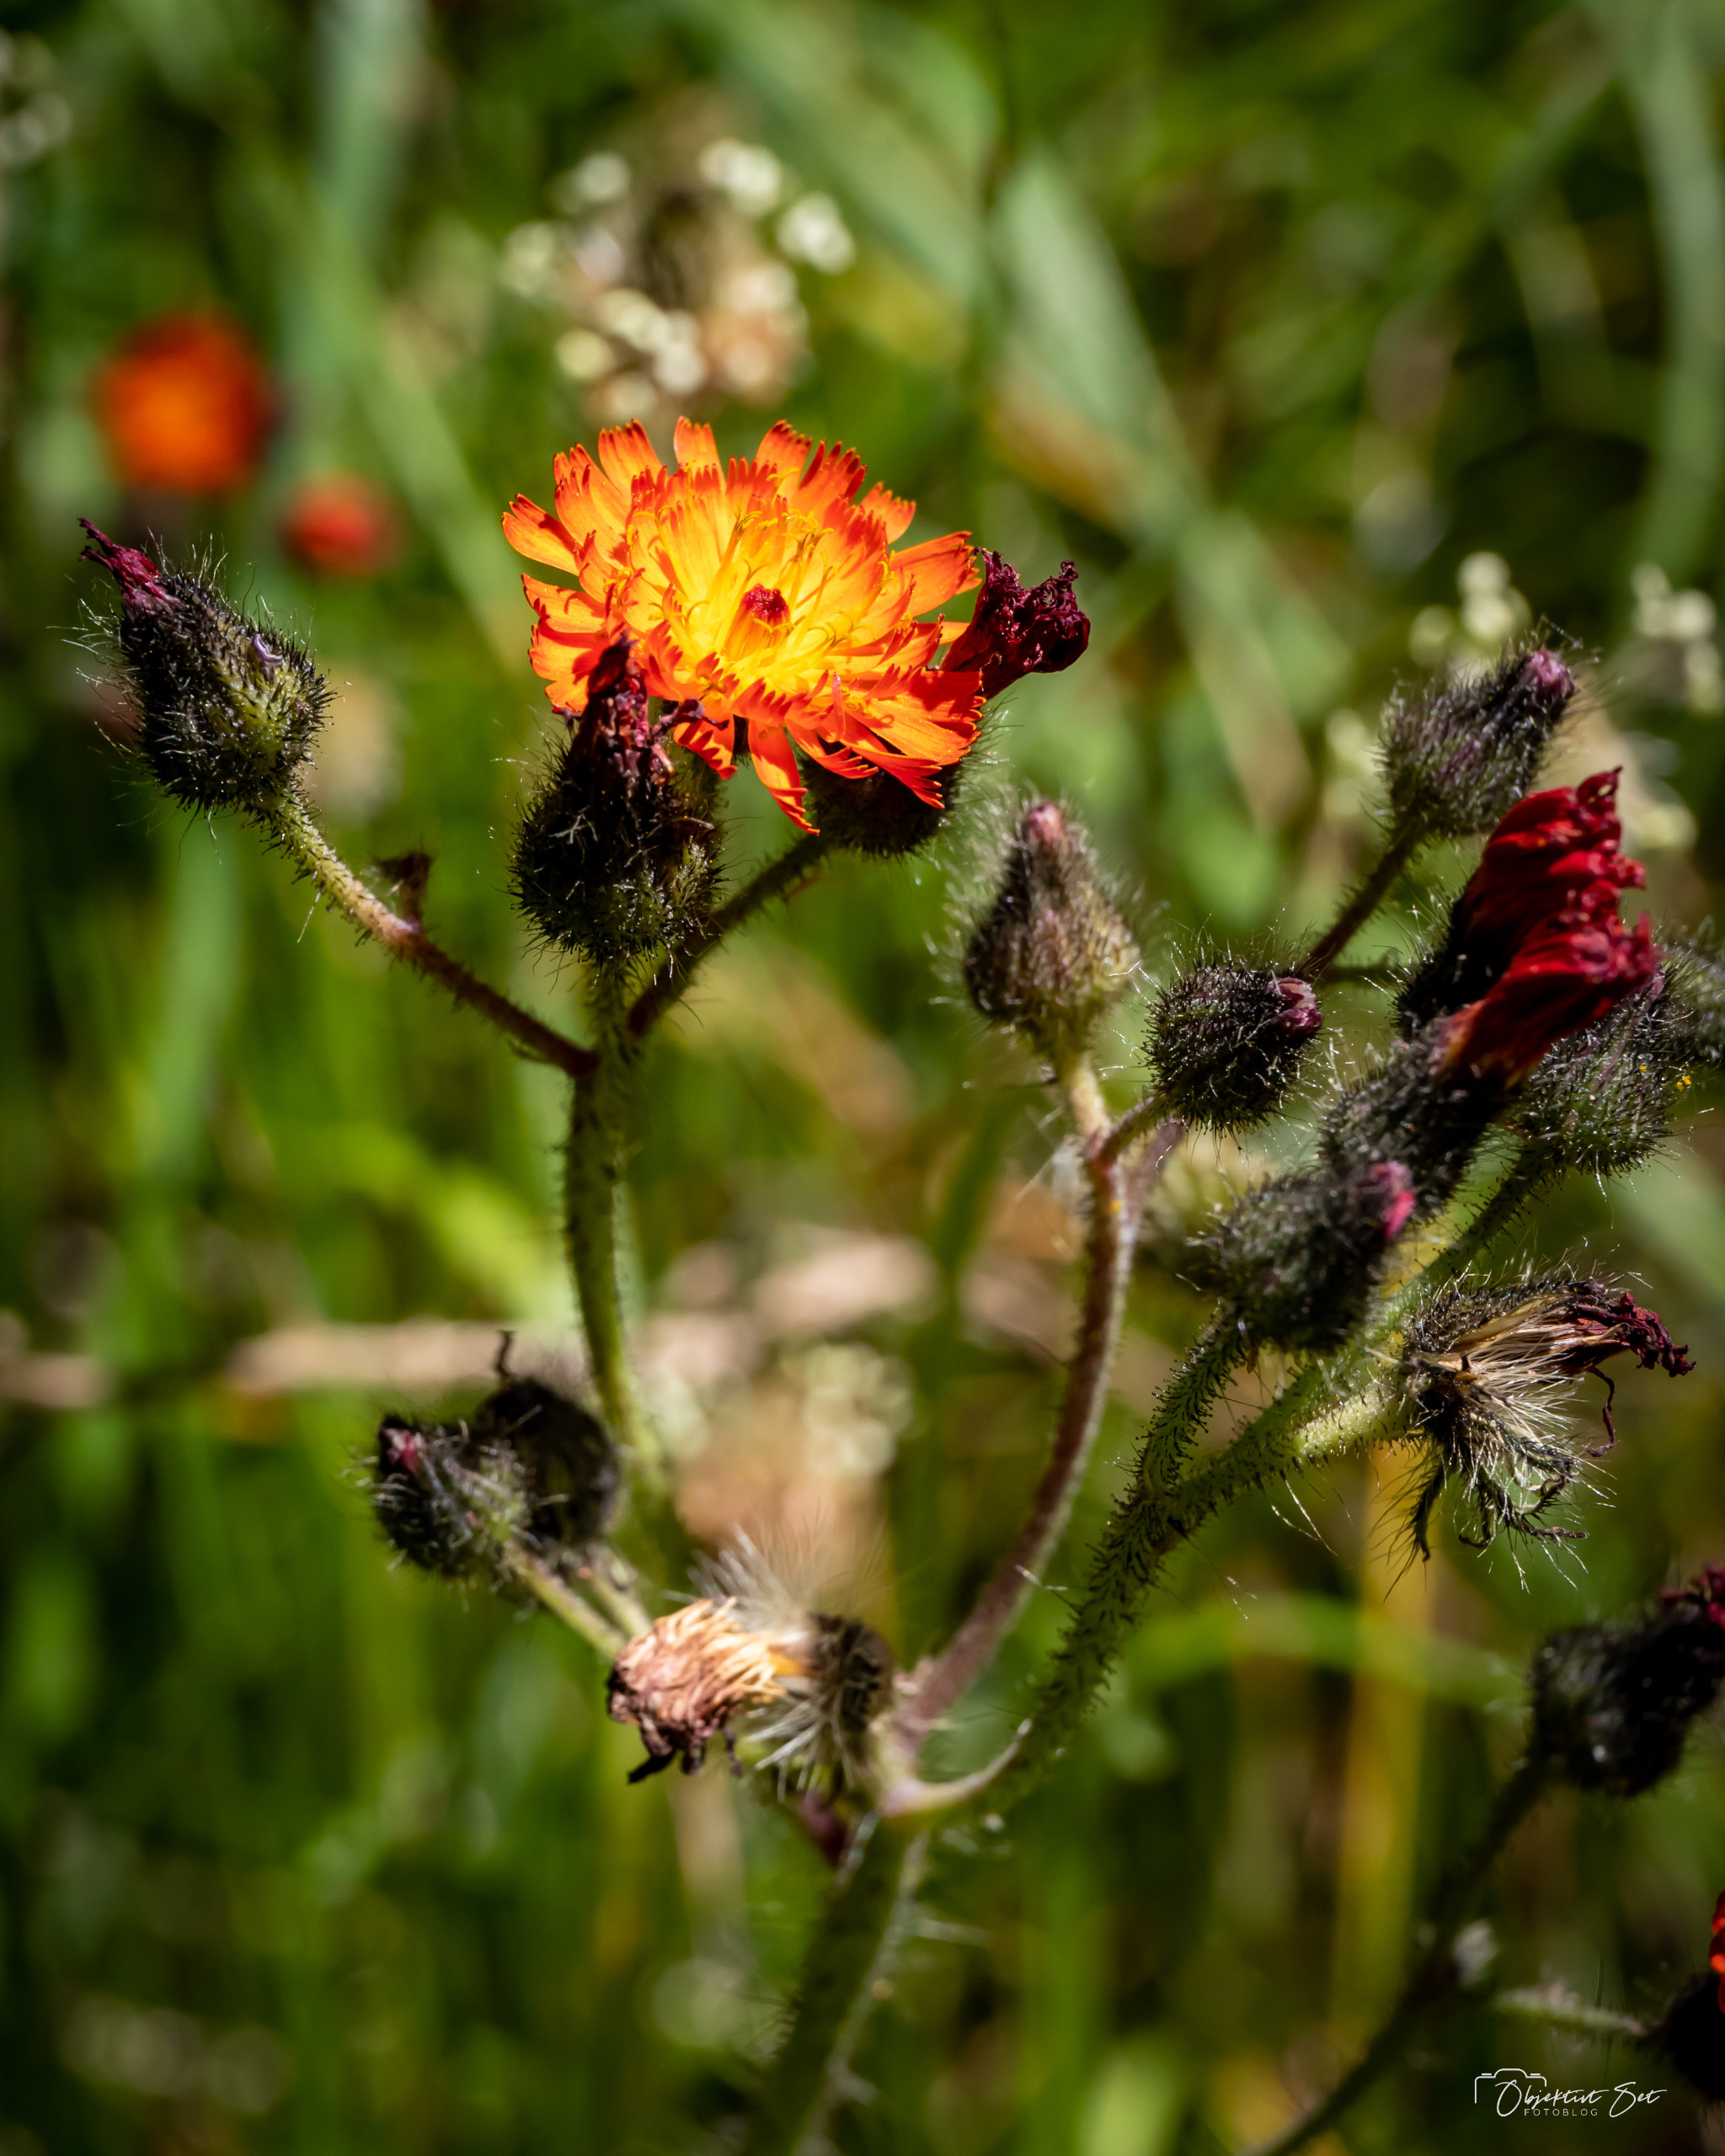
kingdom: Plantae
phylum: Tracheophyta
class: Magnoliopsida
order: Asterales
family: Asteraceae
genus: Pilosella
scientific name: Pilosella aurantiaca
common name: Pomerans-høgeurt
